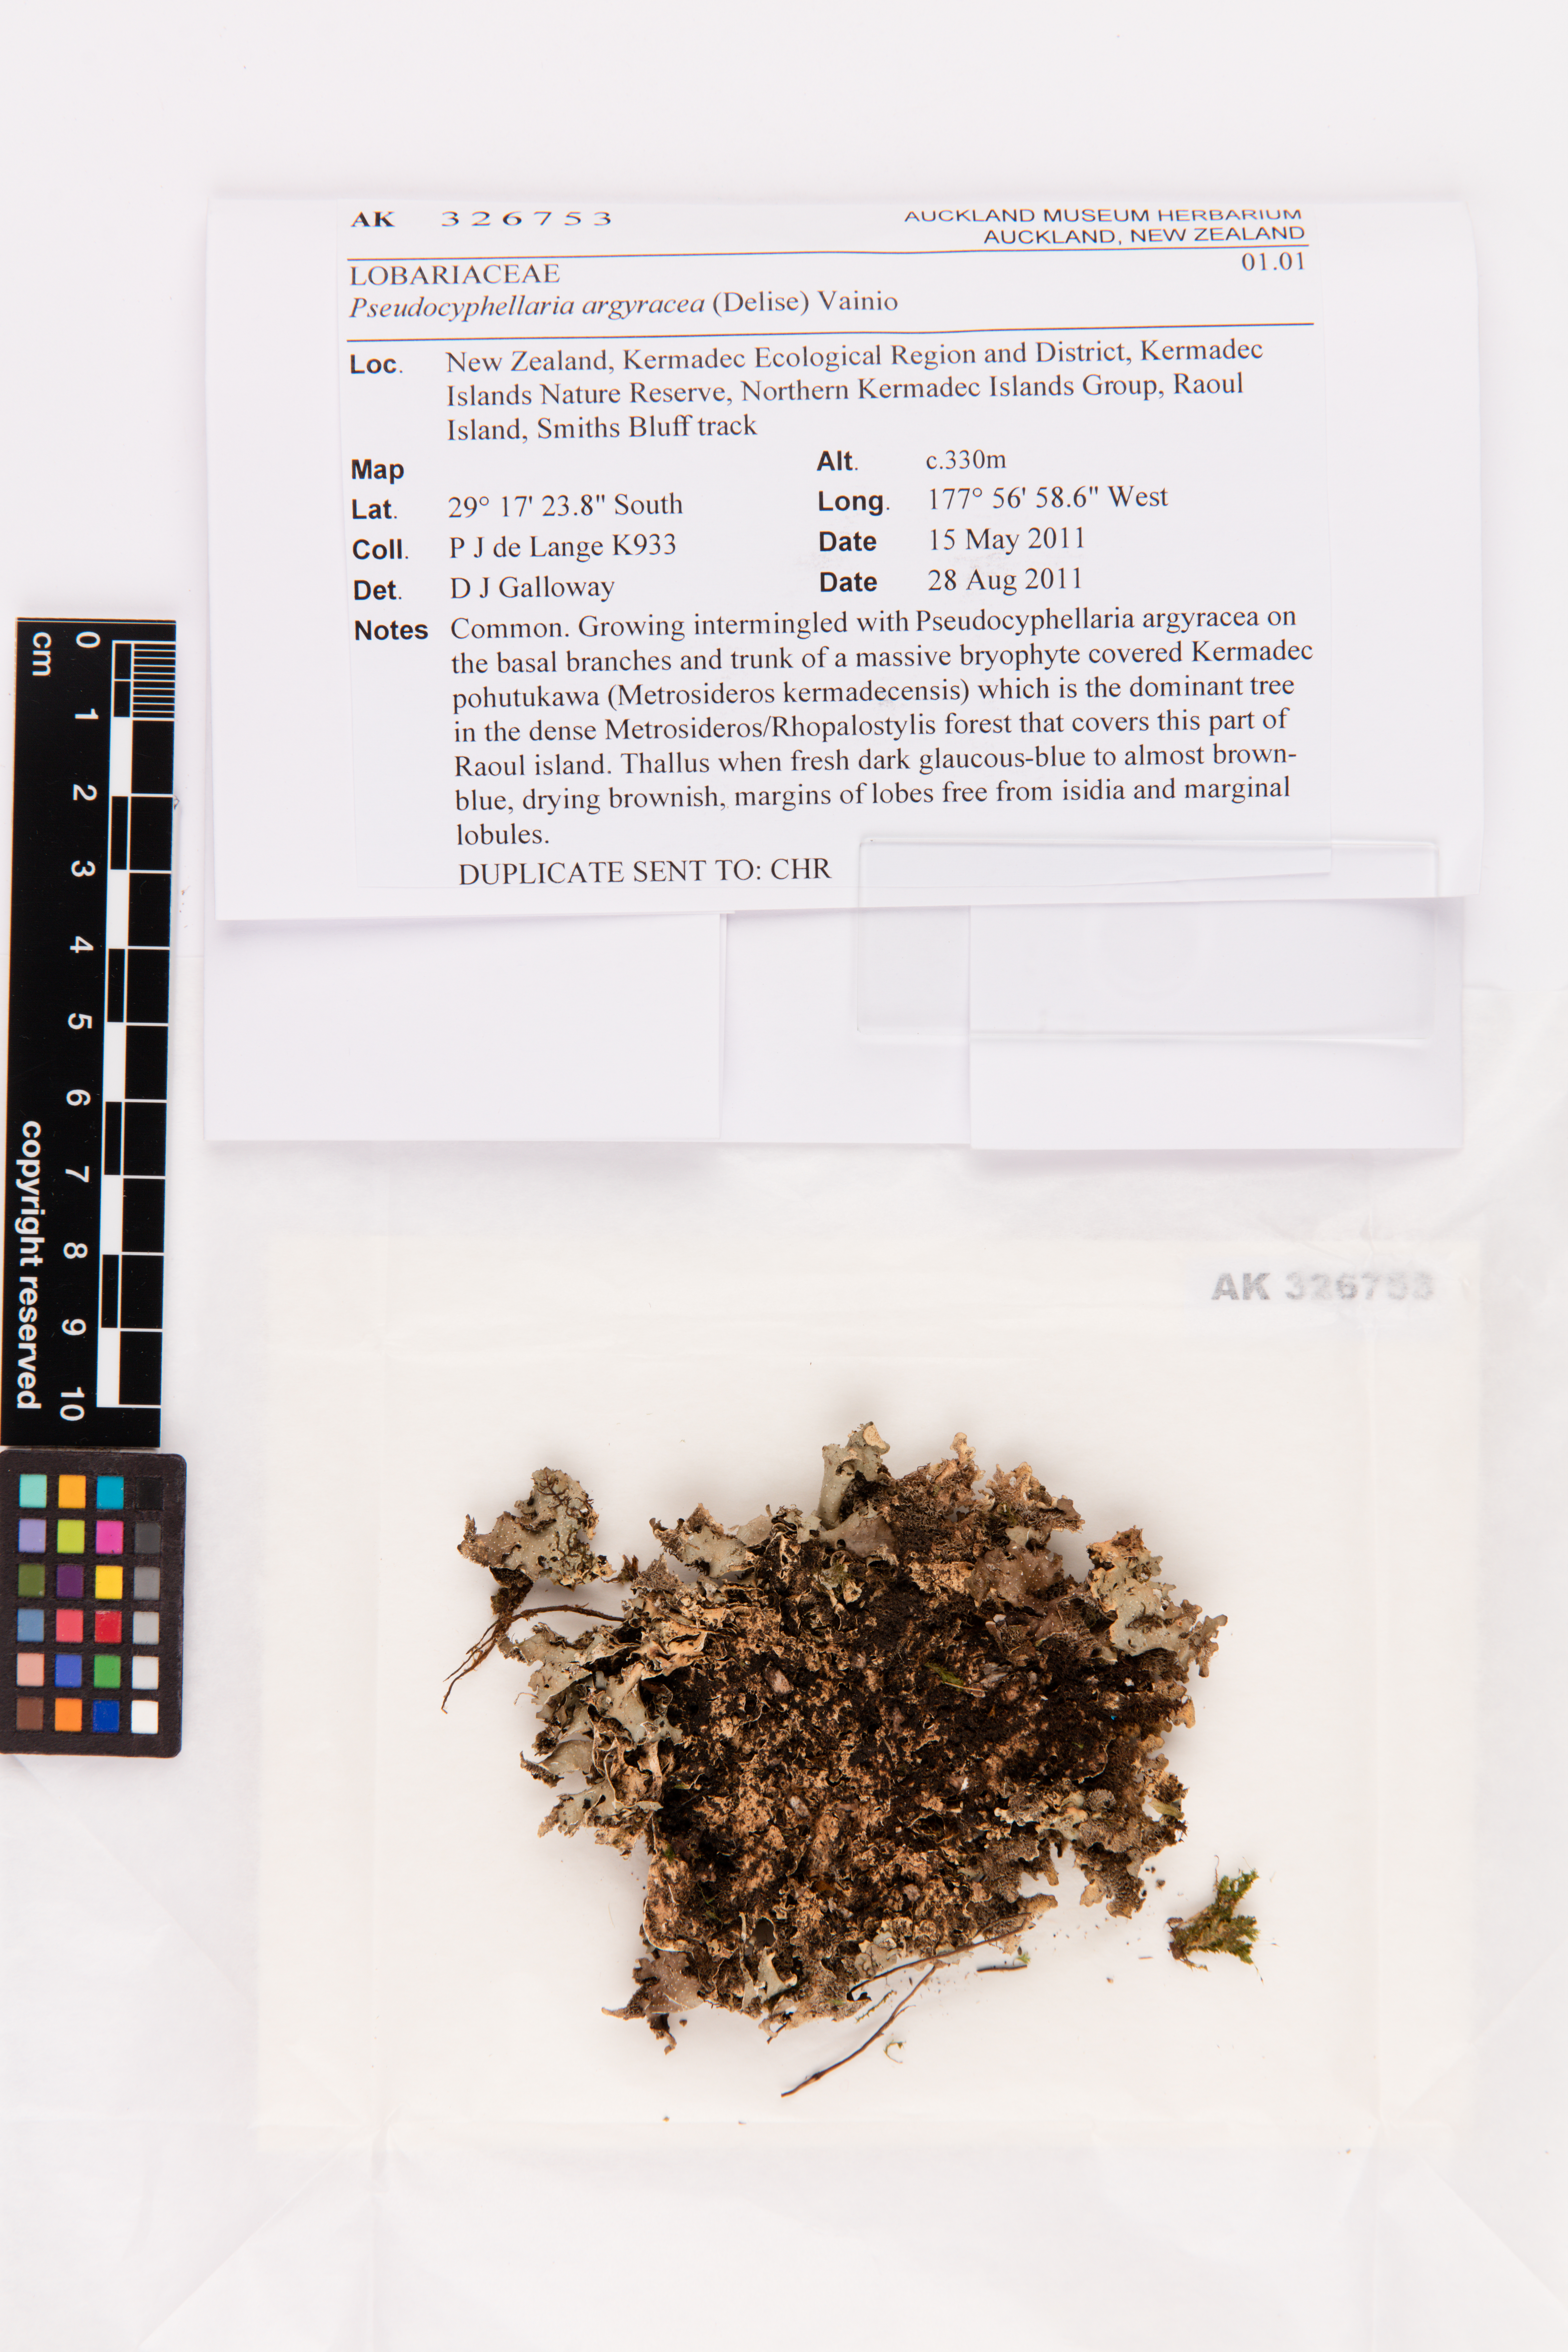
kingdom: Fungi
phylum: Ascomycota
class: Lecanoromycetes
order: Peltigerales
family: Lobariaceae
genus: Pseudocyphellaria
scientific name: Pseudocyphellaria argyracea
